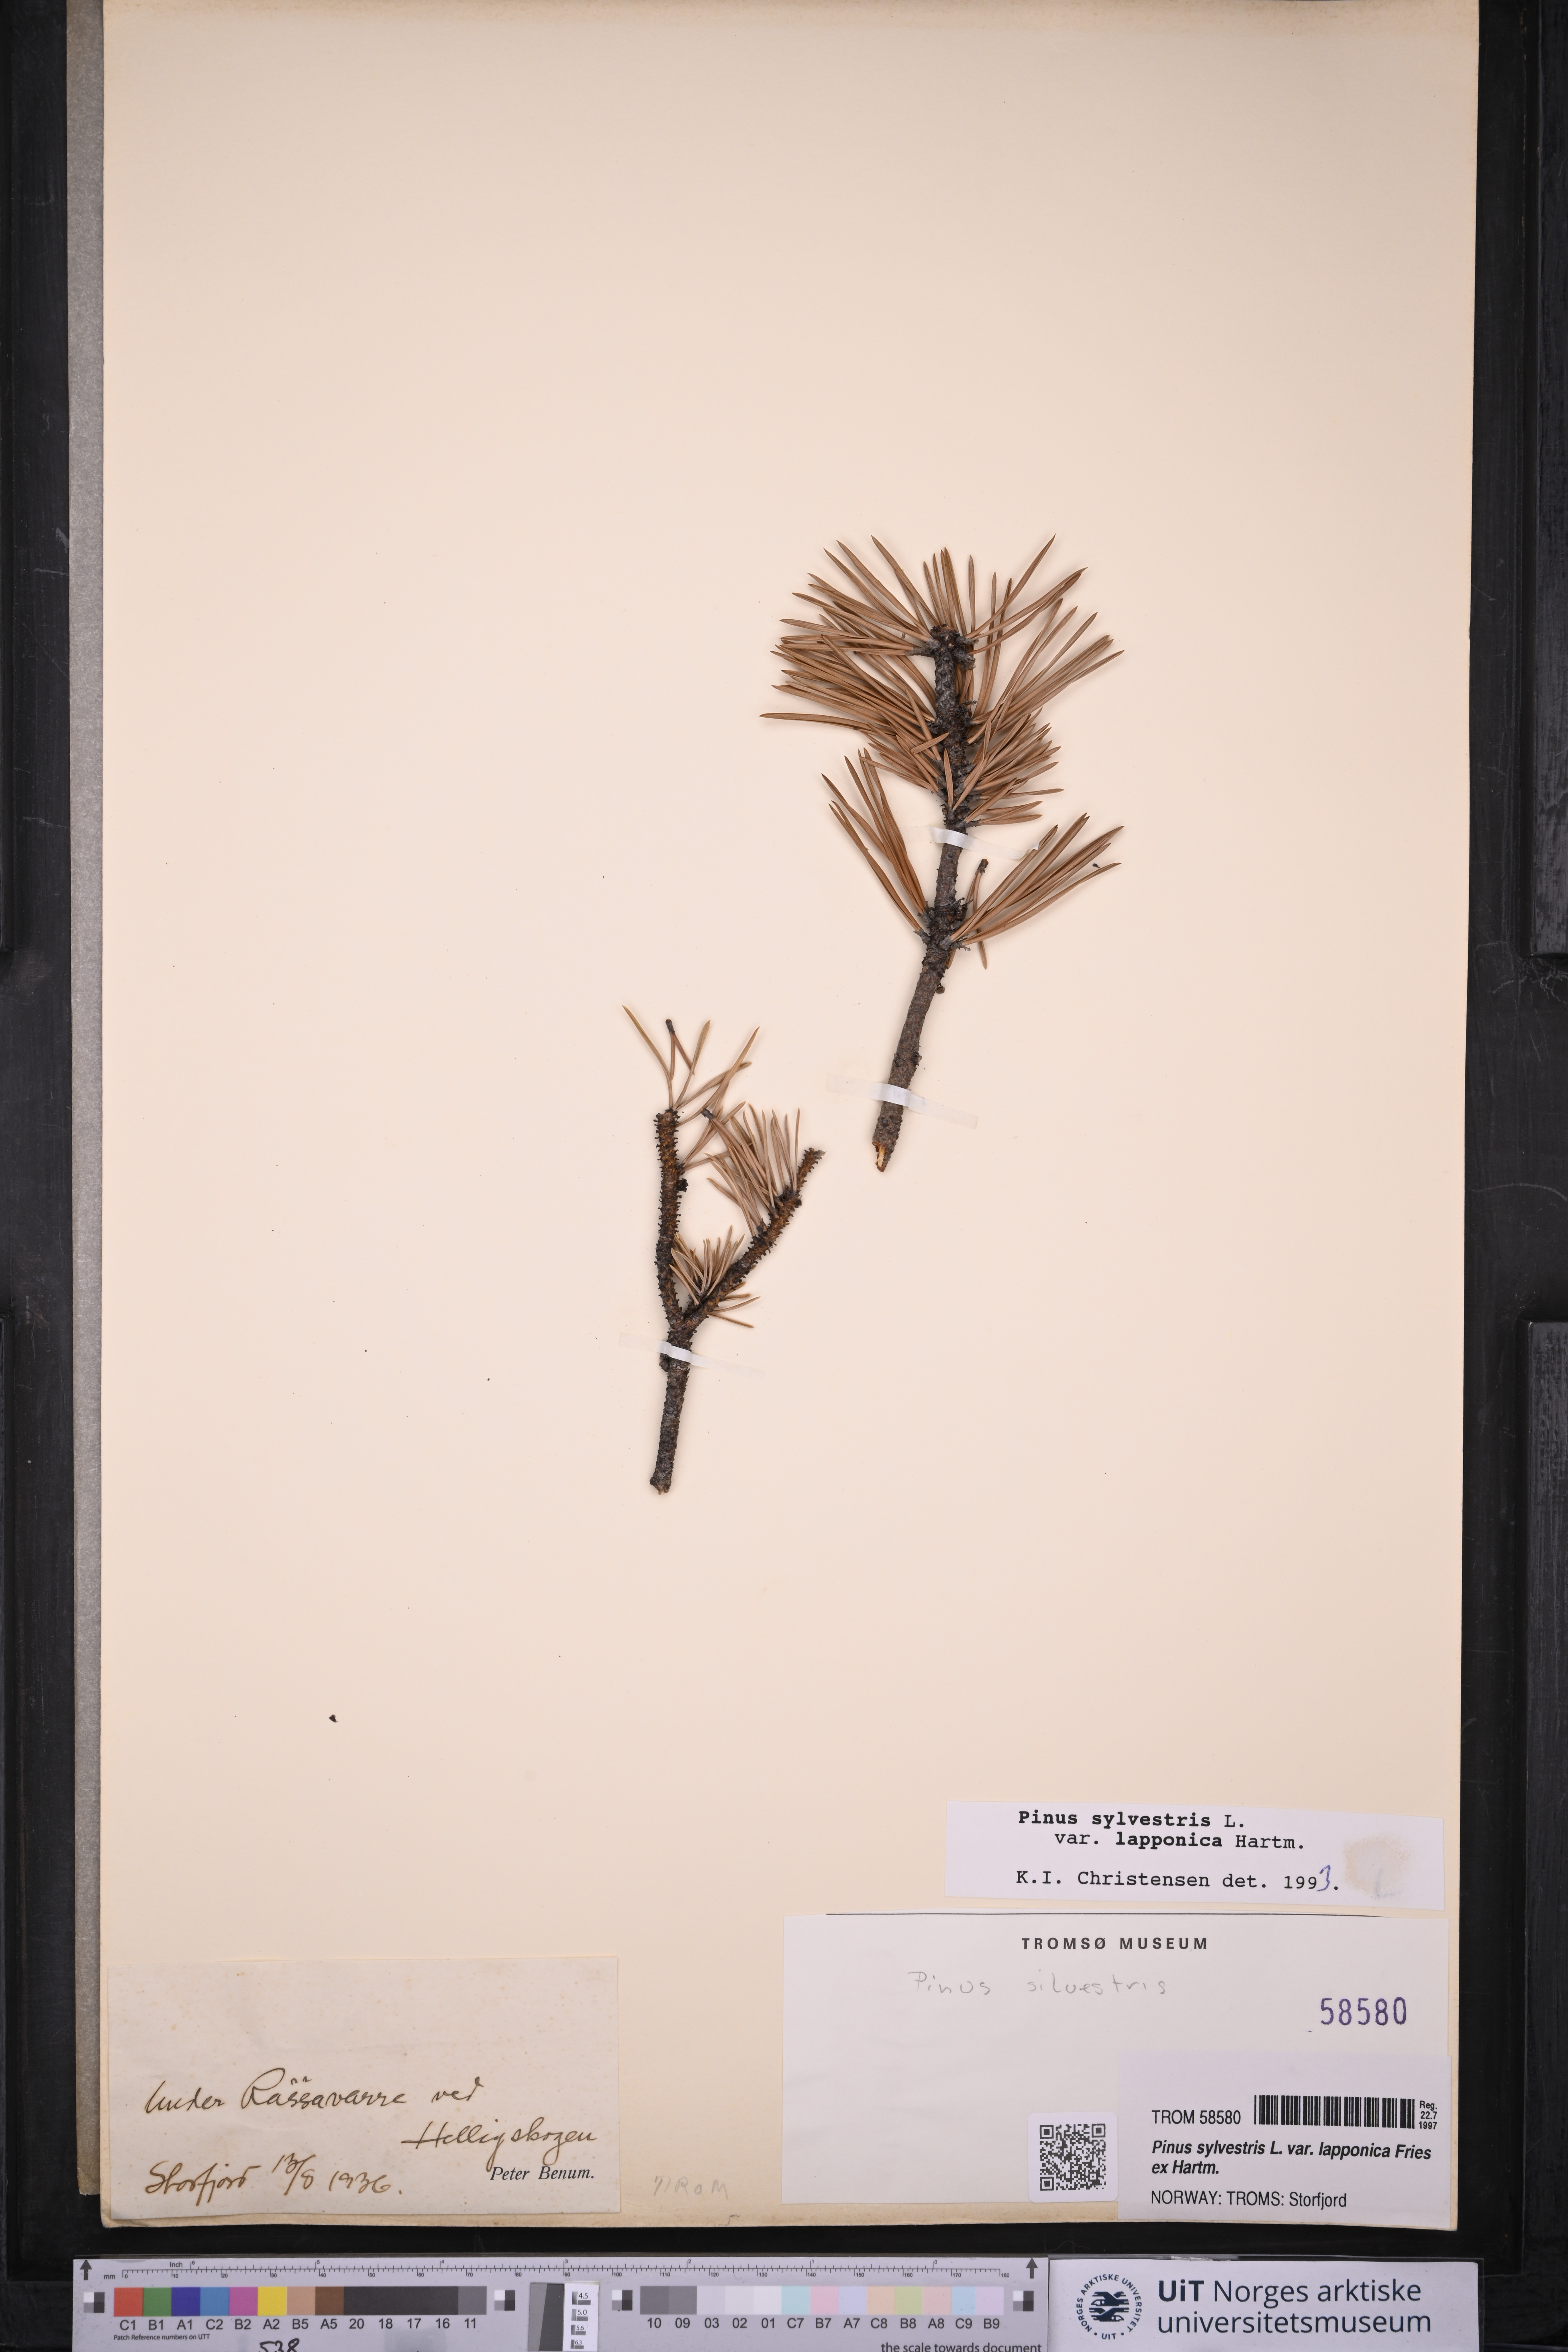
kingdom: Plantae
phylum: Tracheophyta
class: Pinopsida
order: Pinales
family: Pinaceae
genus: Pinus
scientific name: Pinus sylvestris
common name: Scots pine
